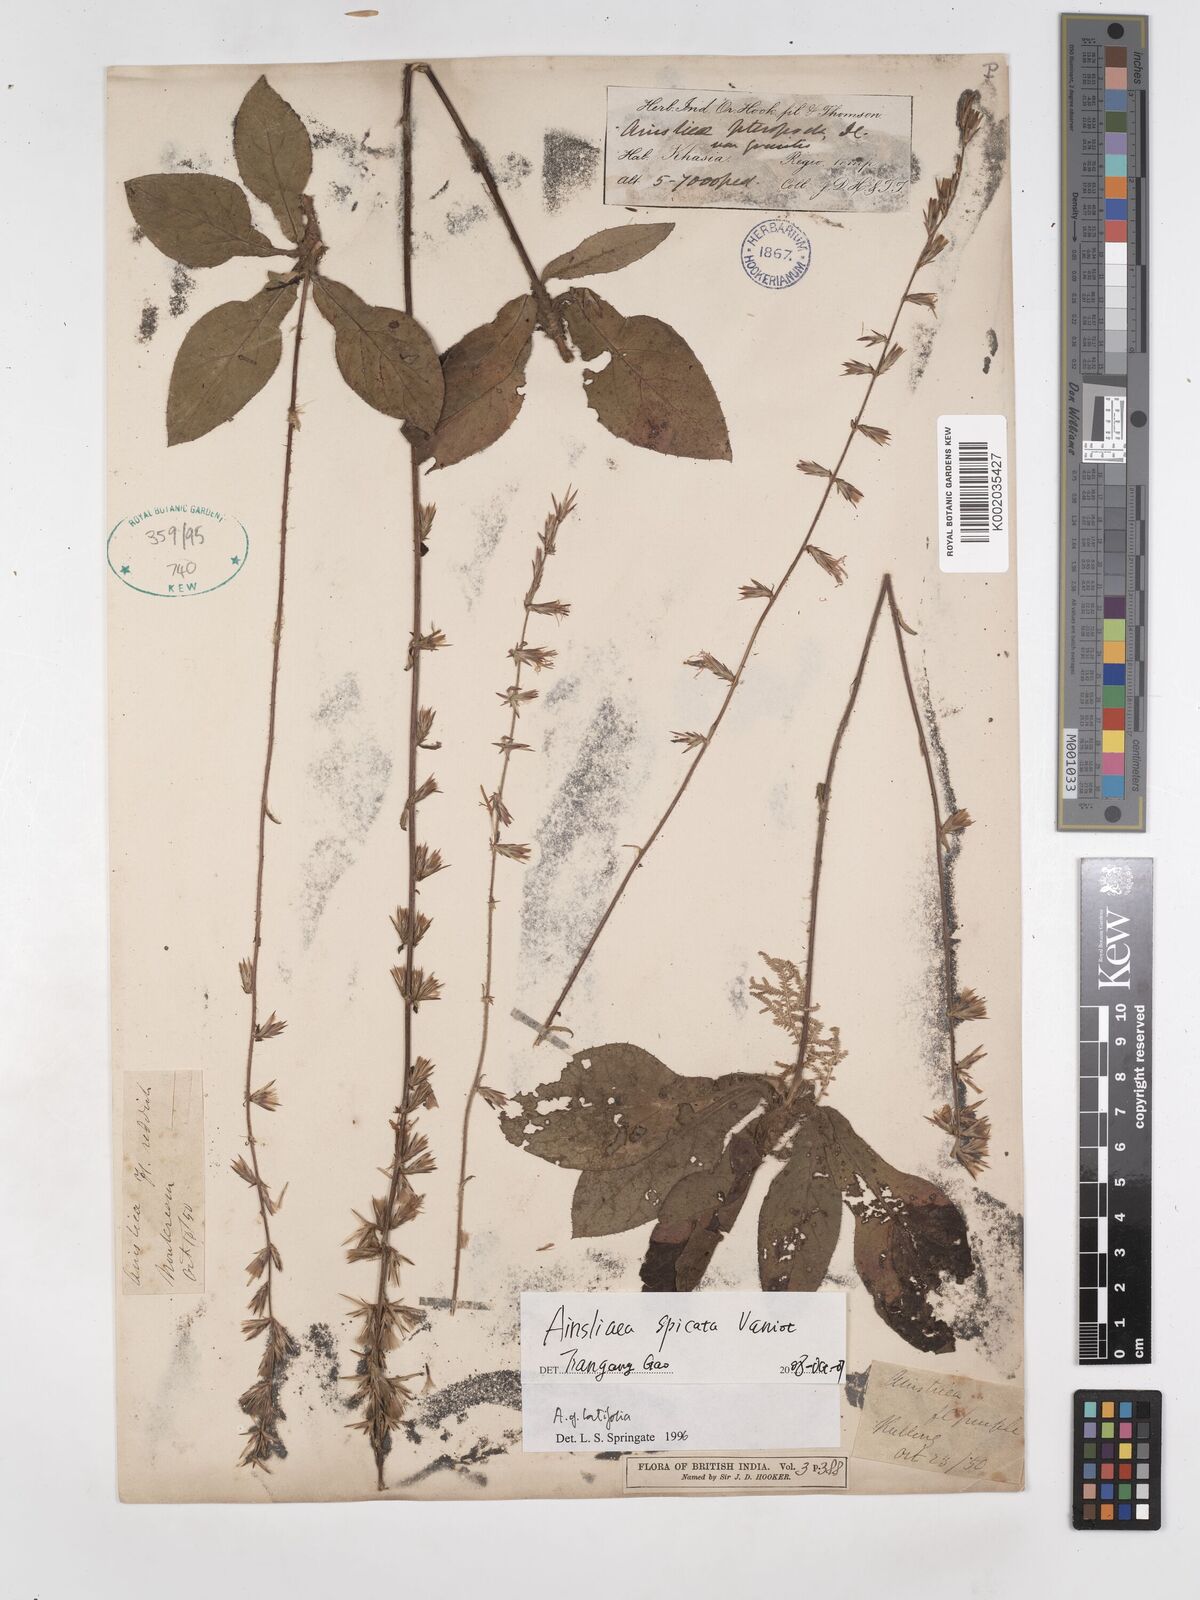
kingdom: Plantae
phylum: Tracheophyta
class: Magnoliopsida
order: Asterales
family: Asteraceae
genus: Ainsliaea
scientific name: Ainsliaea spicata
